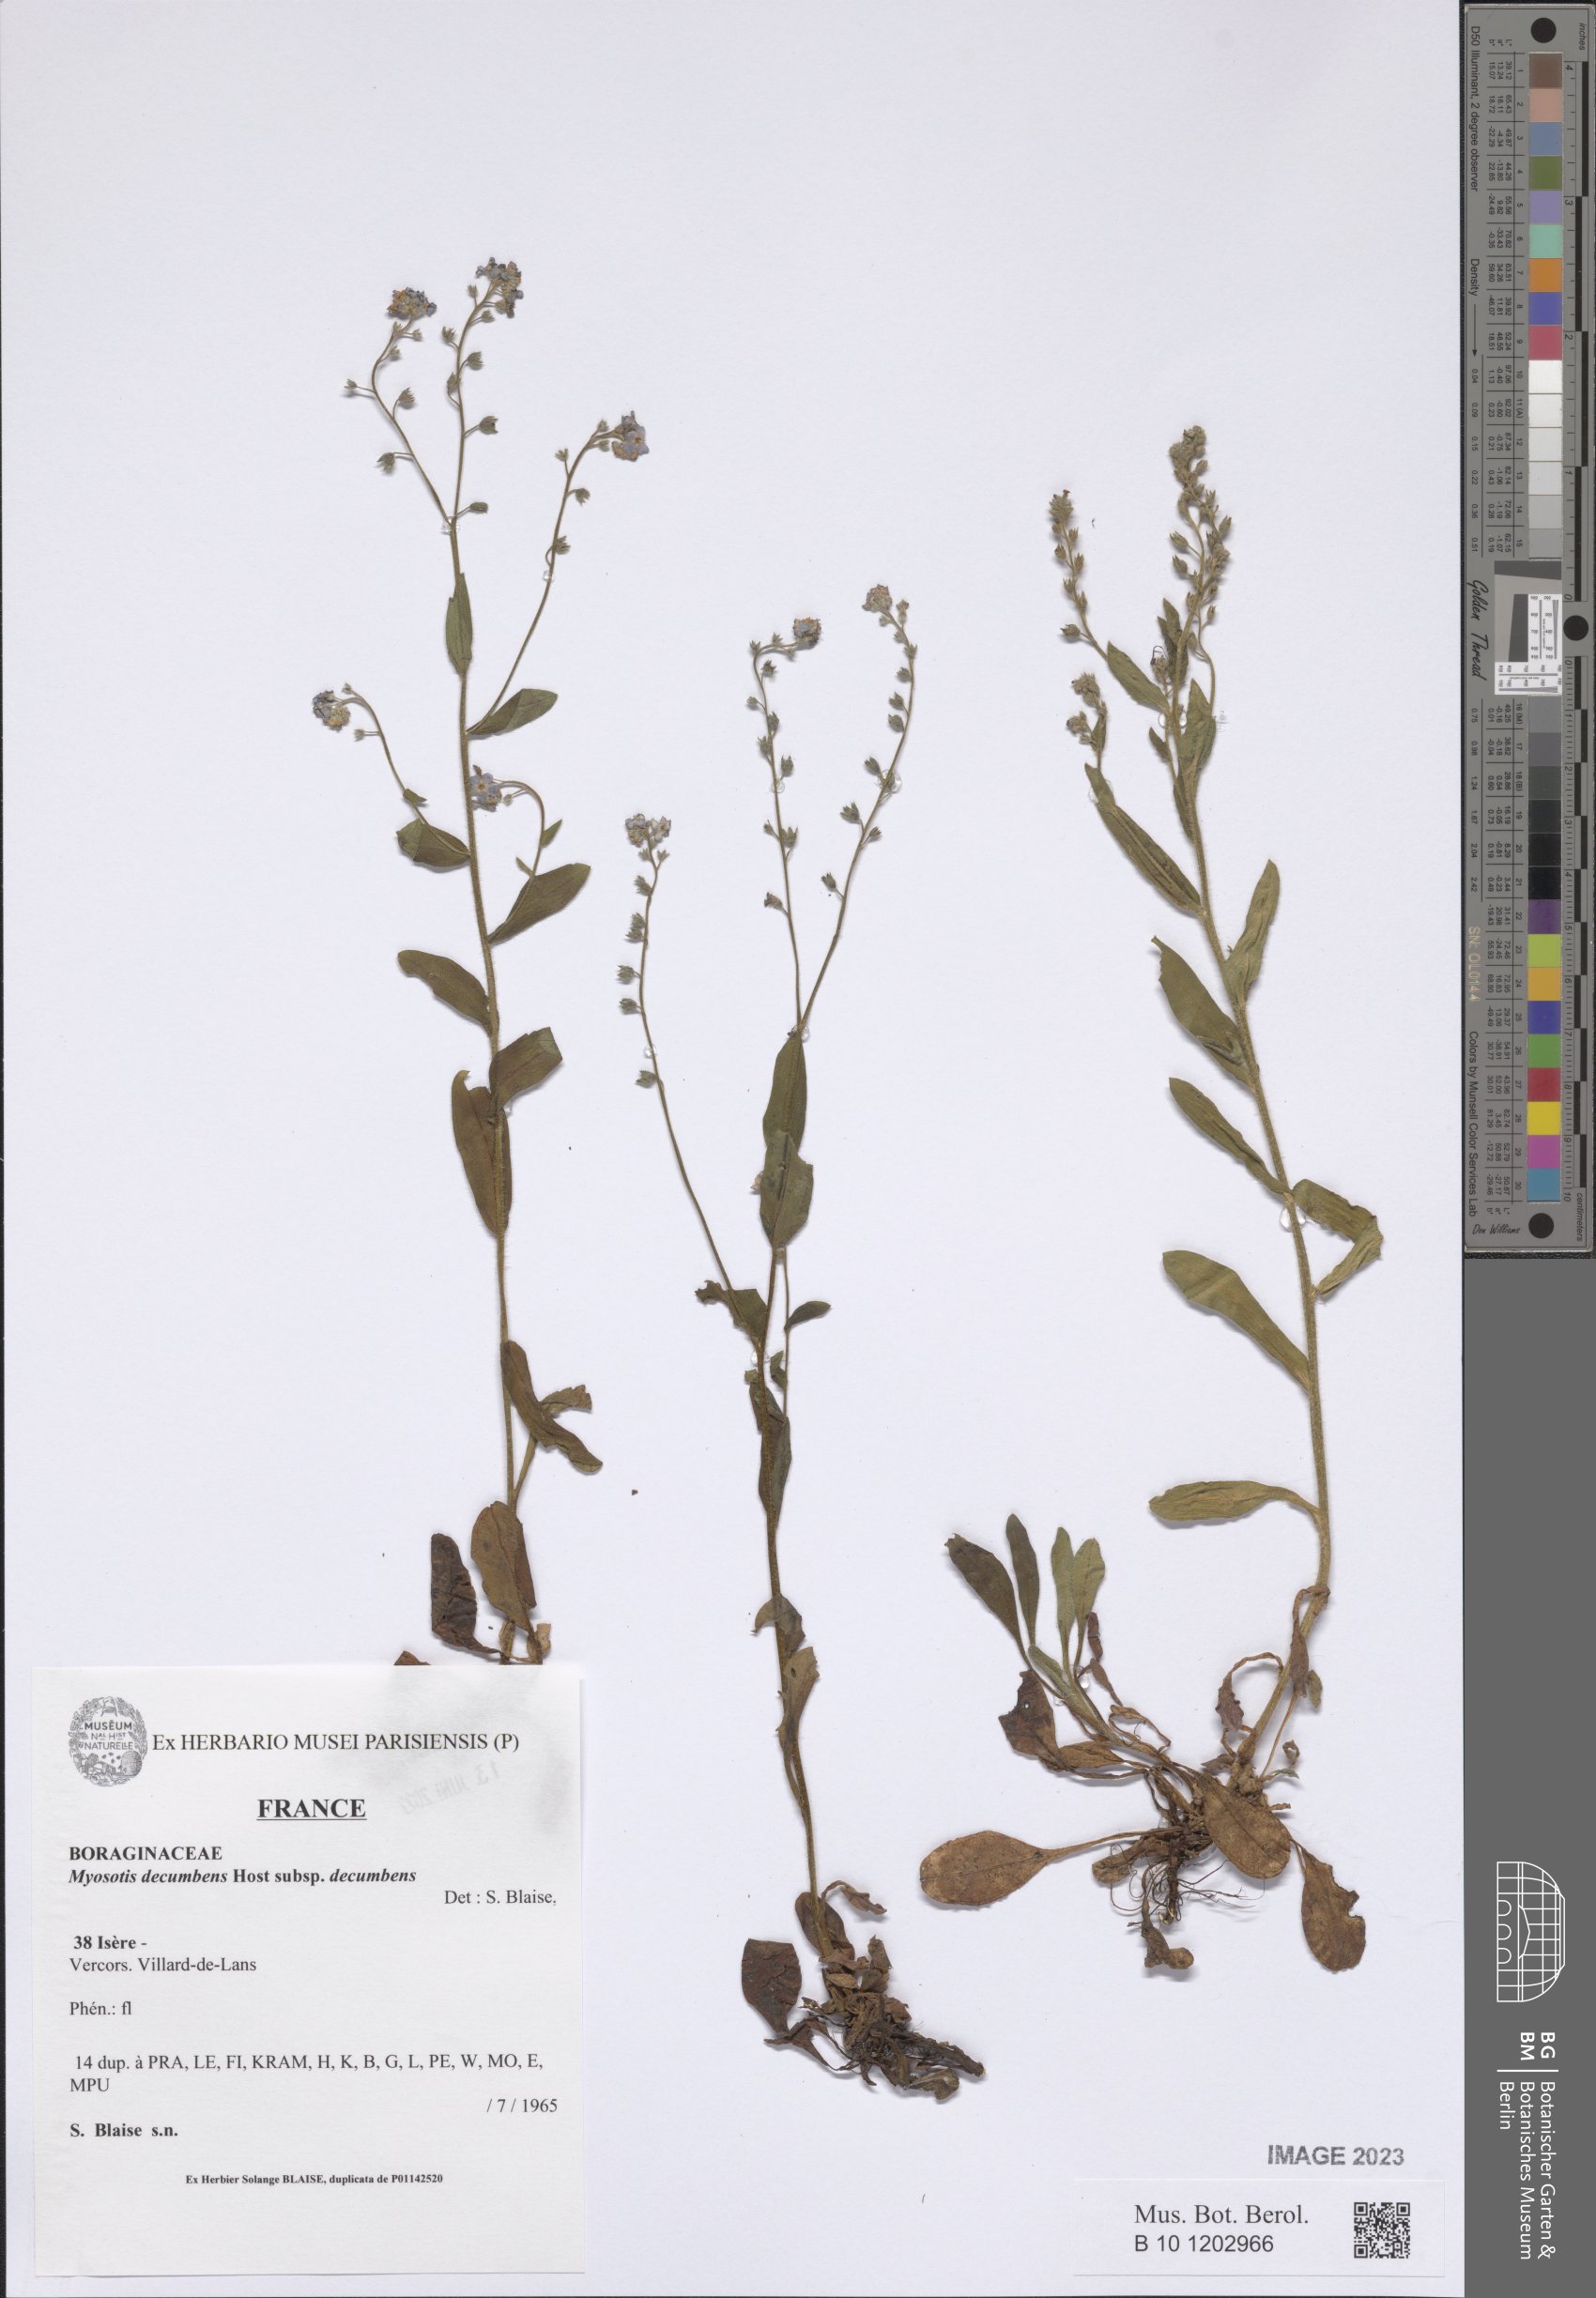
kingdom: Plantae
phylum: Tracheophyta
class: Magnoliopsida
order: Boraginales
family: Boraginaceae
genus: Myosotis
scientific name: Myosotis decumbens
